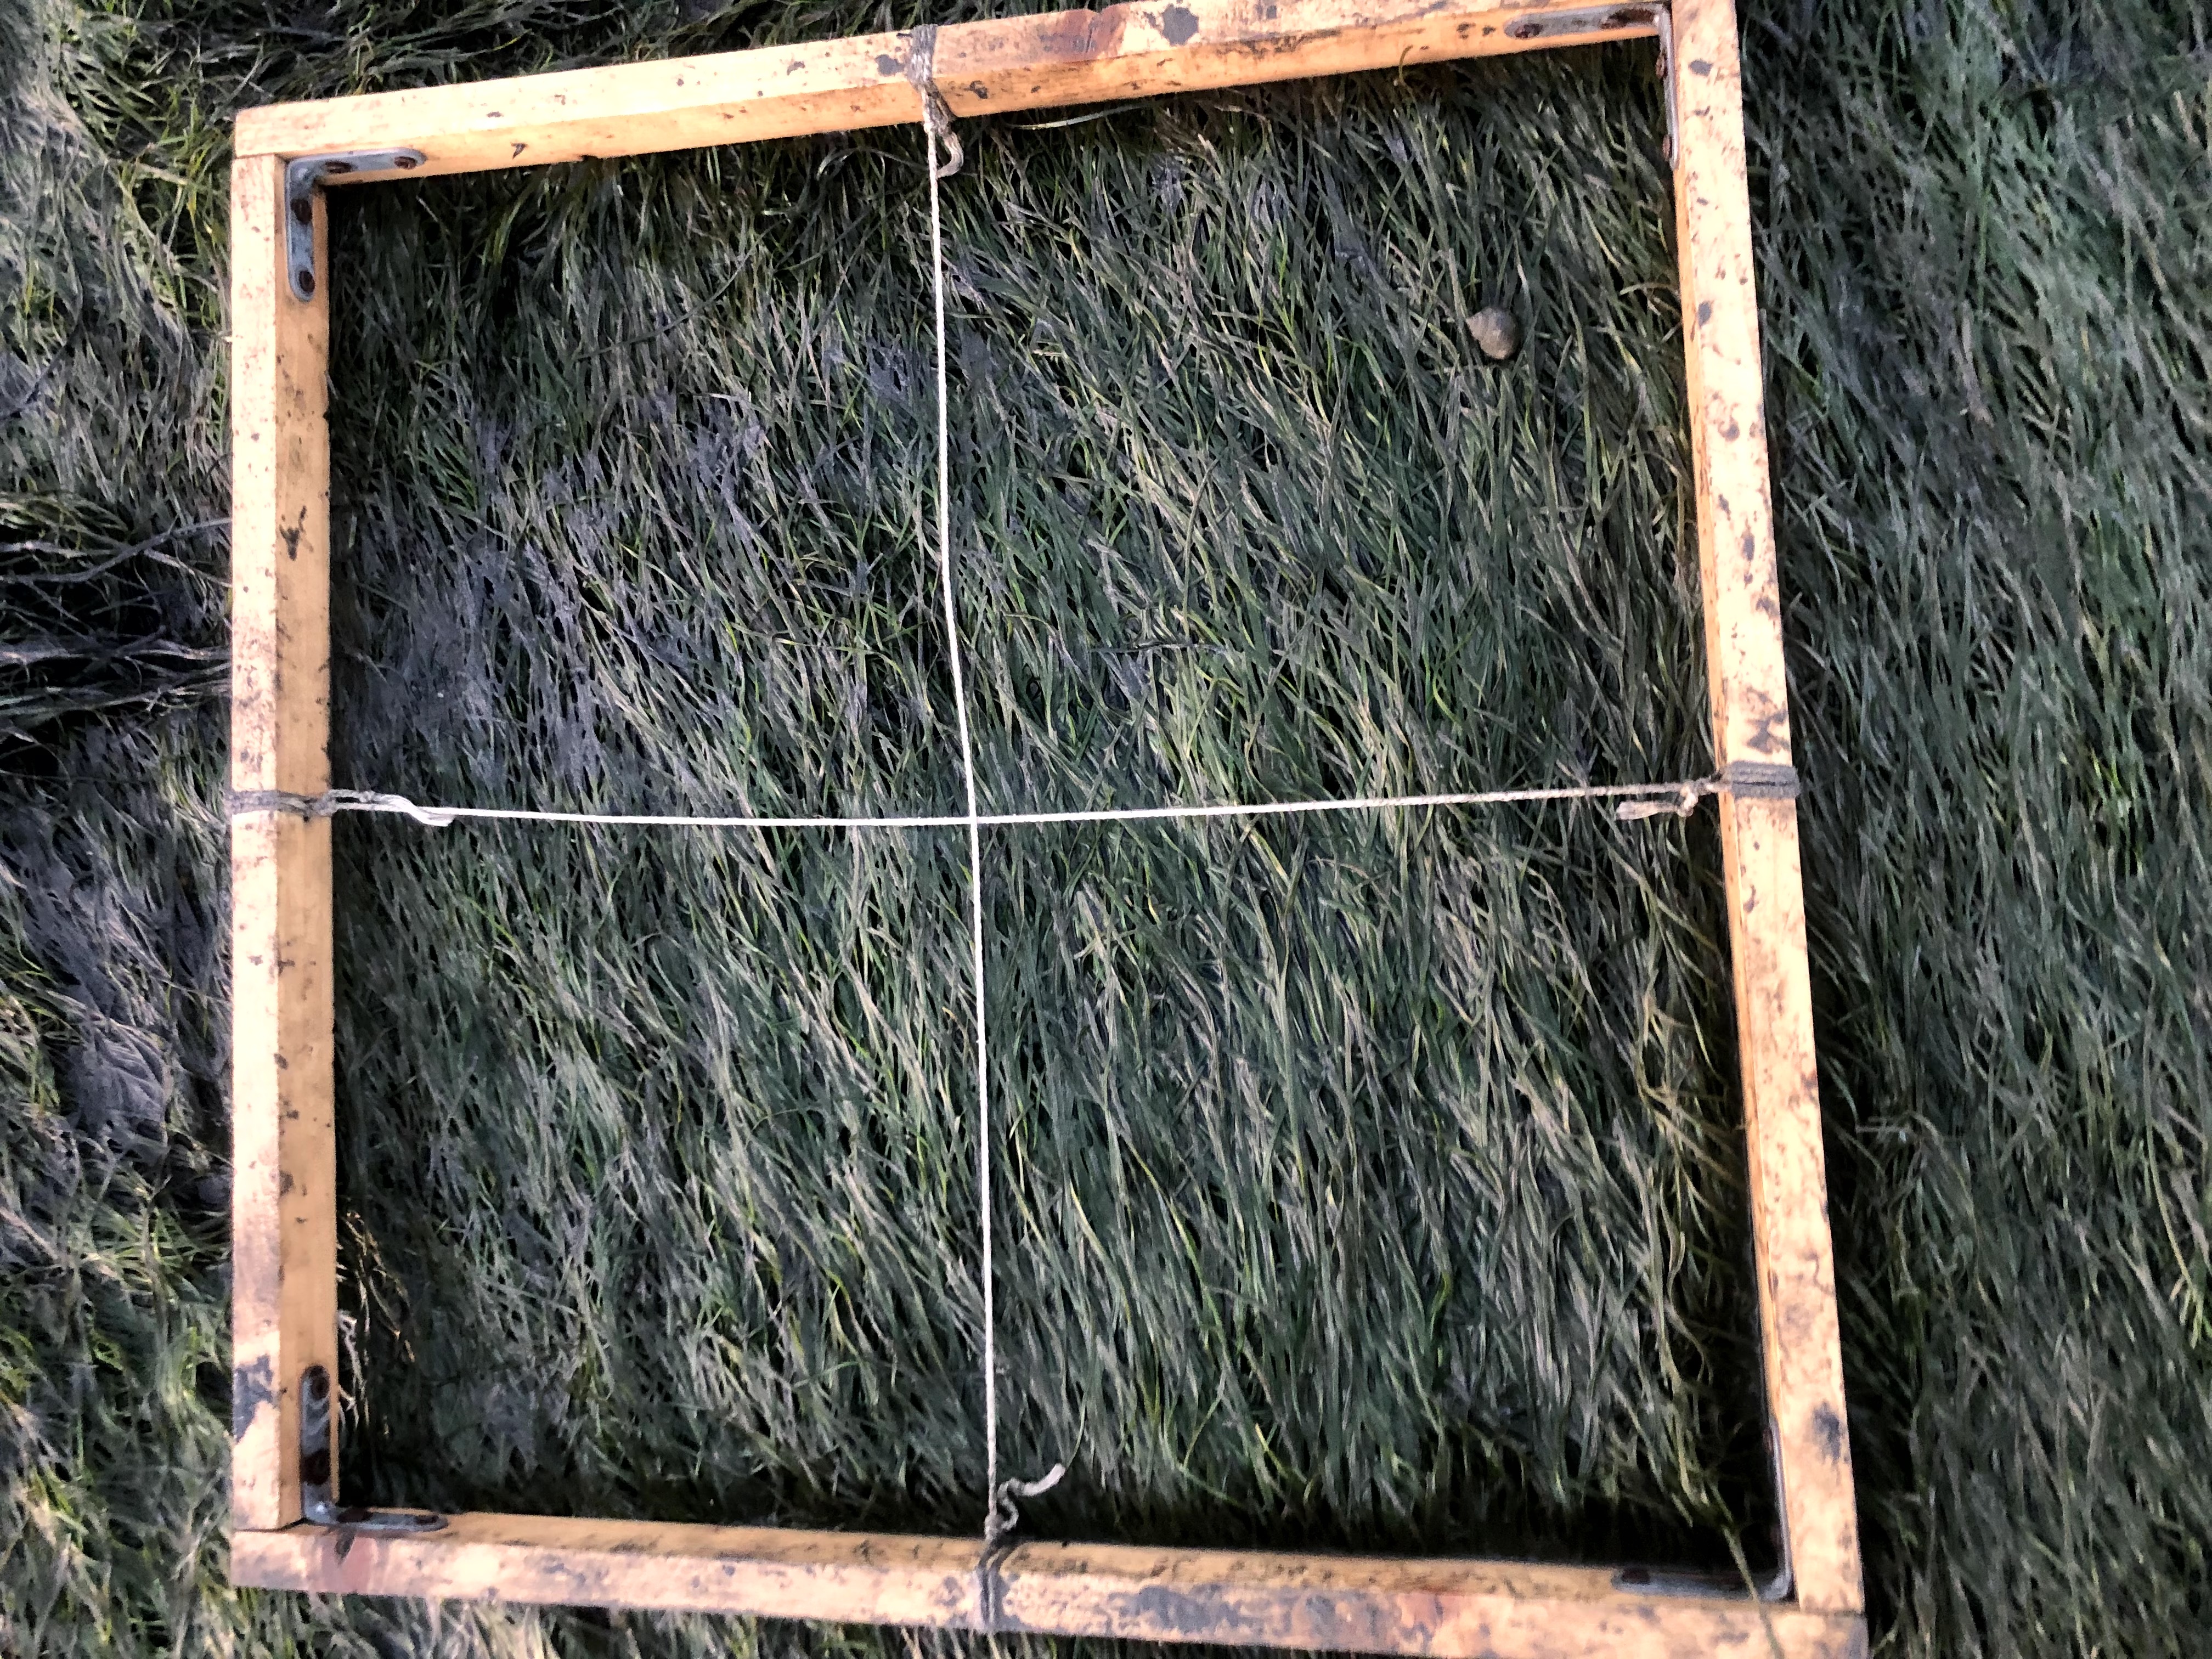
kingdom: Plantae
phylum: Tracheophyta
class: Liliopsida
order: Alismatales
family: Zosteraceae
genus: Zostera
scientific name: Zostera noltii
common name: Dwarf eelgrass
